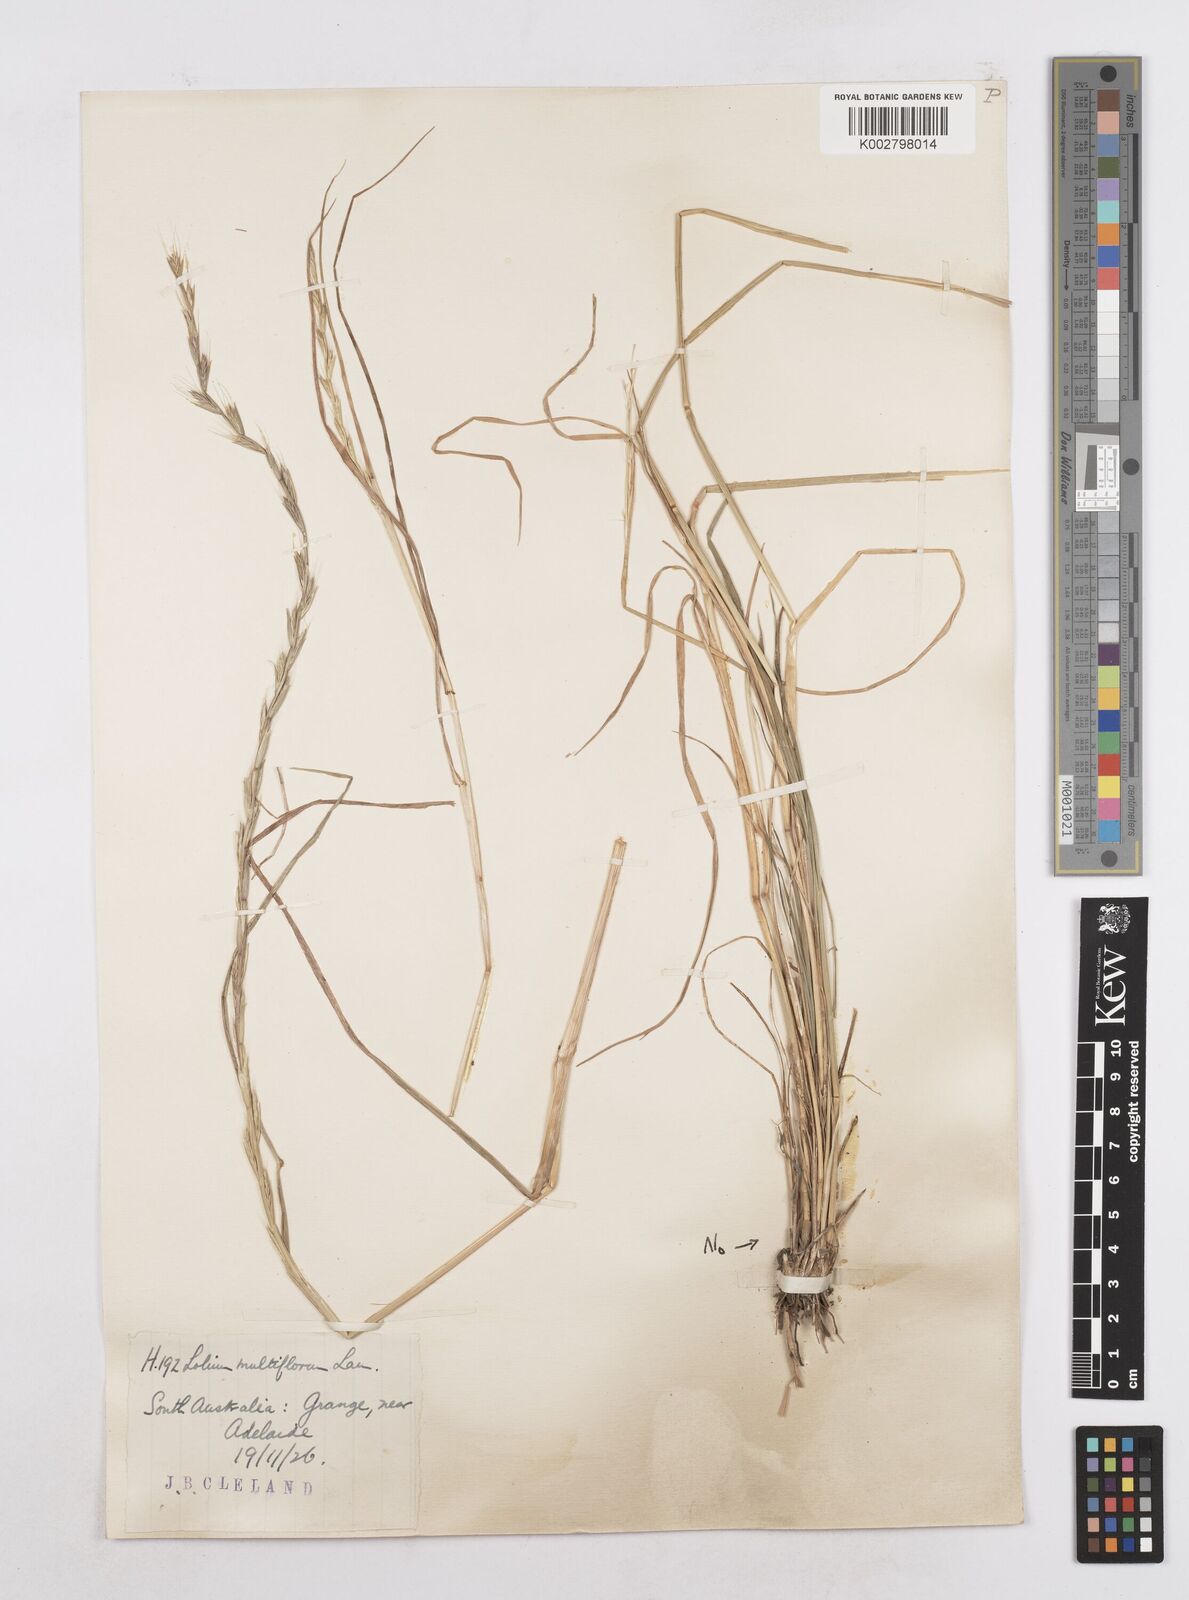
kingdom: Plantae
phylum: Tracheophyta
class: Liliopsida
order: Poales
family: Poaceae
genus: Lolium
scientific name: Lolium multiflorum
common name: Annual ryegrass
